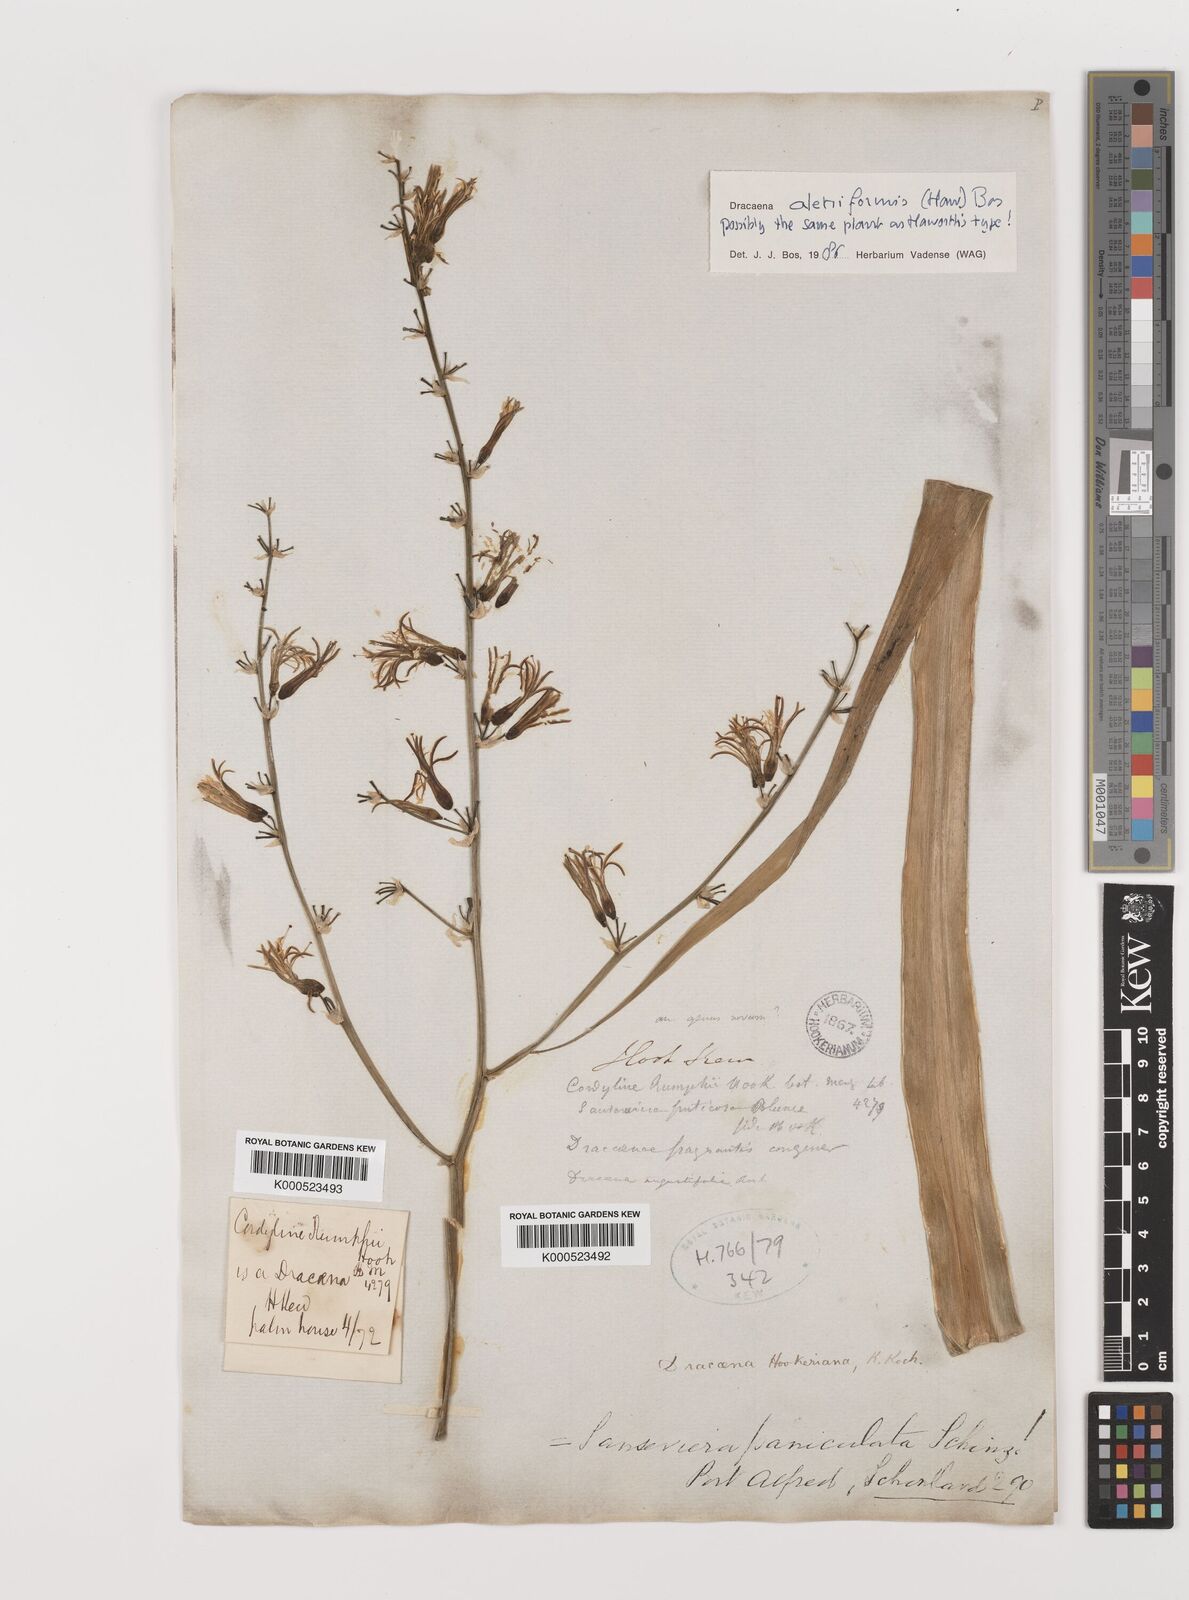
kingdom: Plantae
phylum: Tracheophyta
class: Liliopsida
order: Asparagales
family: Asparagaceae
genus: Dracaena
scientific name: Dracaena aletriformis
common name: Large-leaved dragon tree
